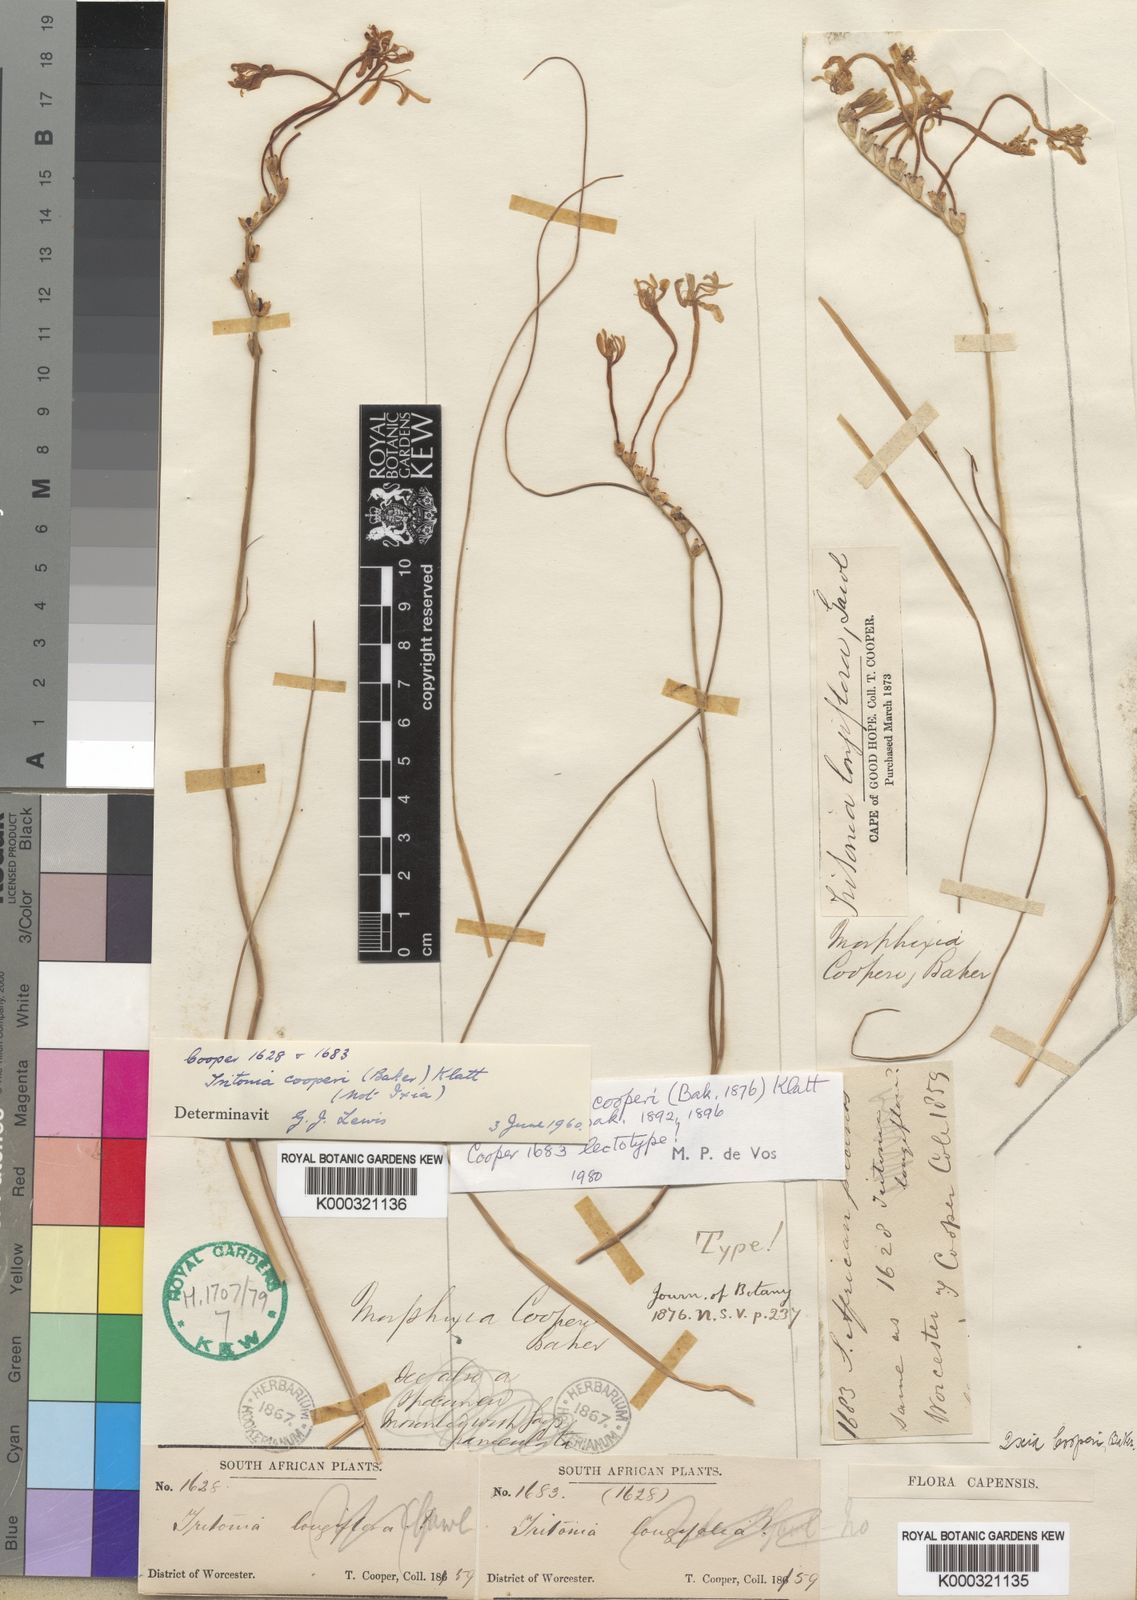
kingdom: Plantae
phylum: Tracheophyta
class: Liliopsida
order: Asparagales
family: Iridaceae
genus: Tritonia
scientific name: Tritonia cooperi
